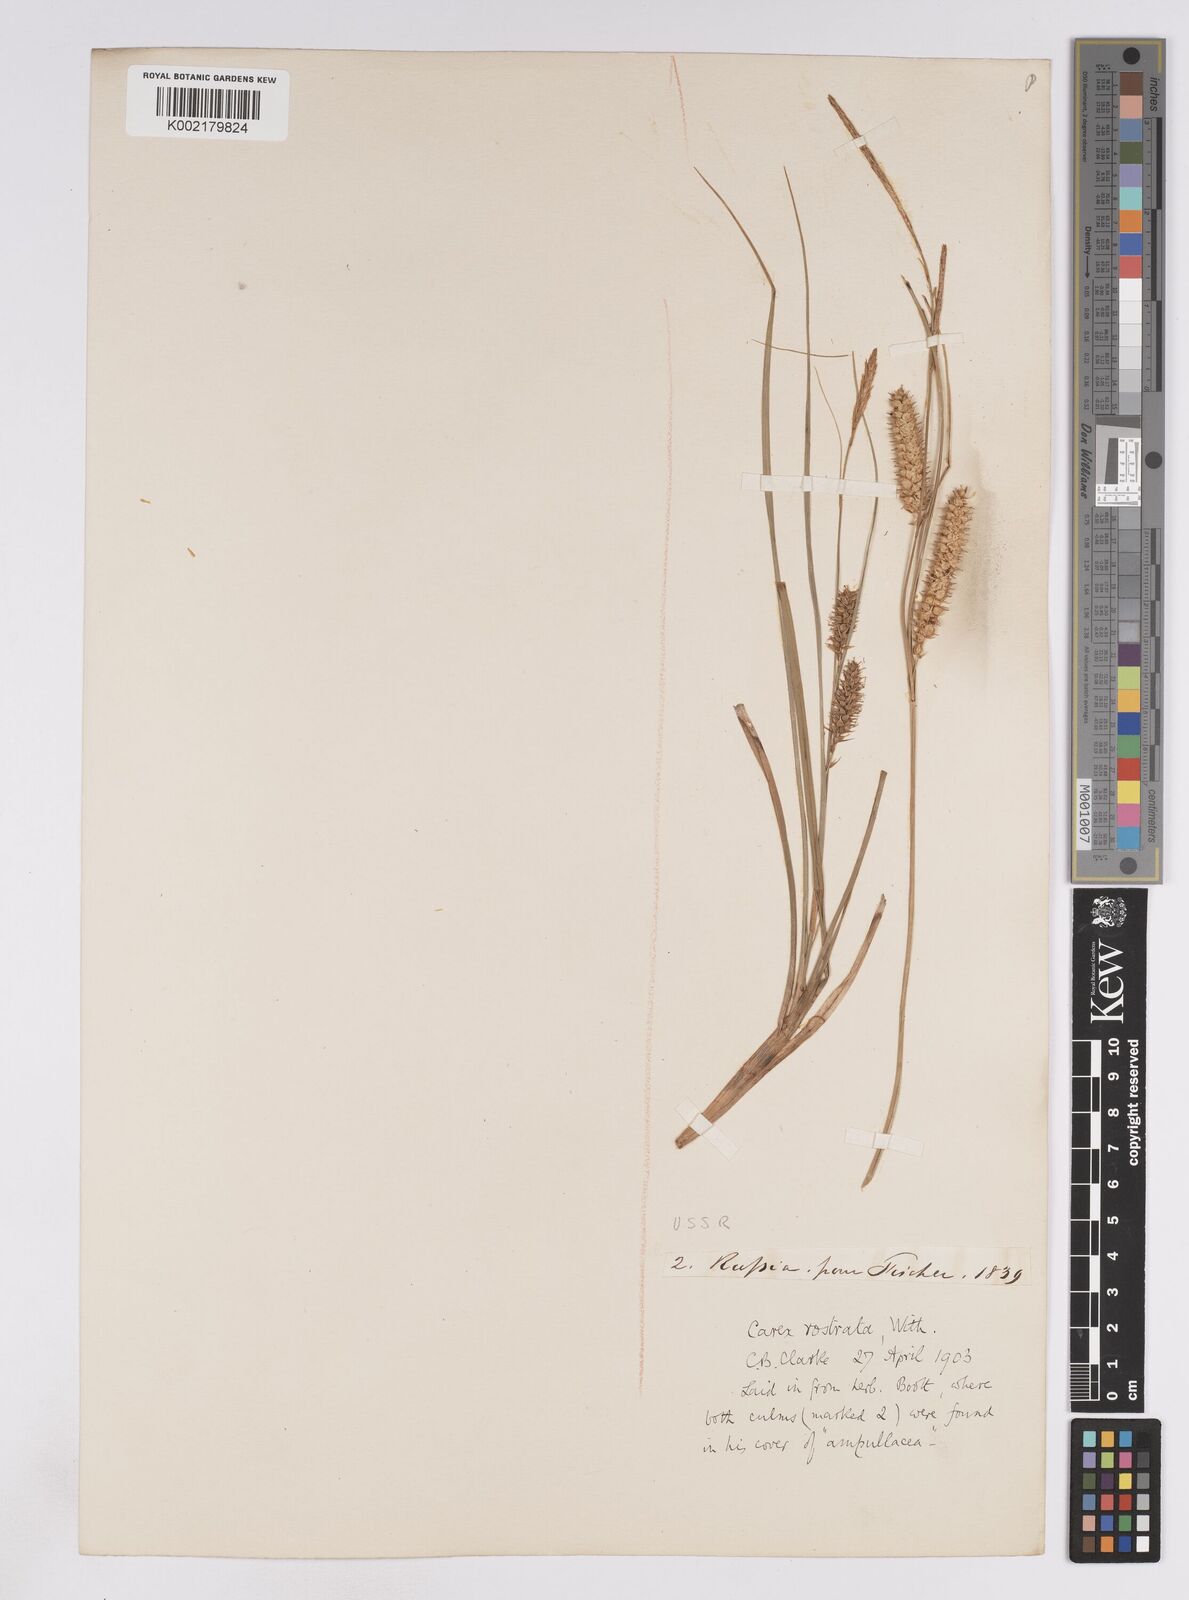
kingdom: Plantae
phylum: Tracheophyta
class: Liliopsida
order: Poales
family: Cyperaceae
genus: Carex
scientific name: Carex rostrata
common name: Bottle sedge
